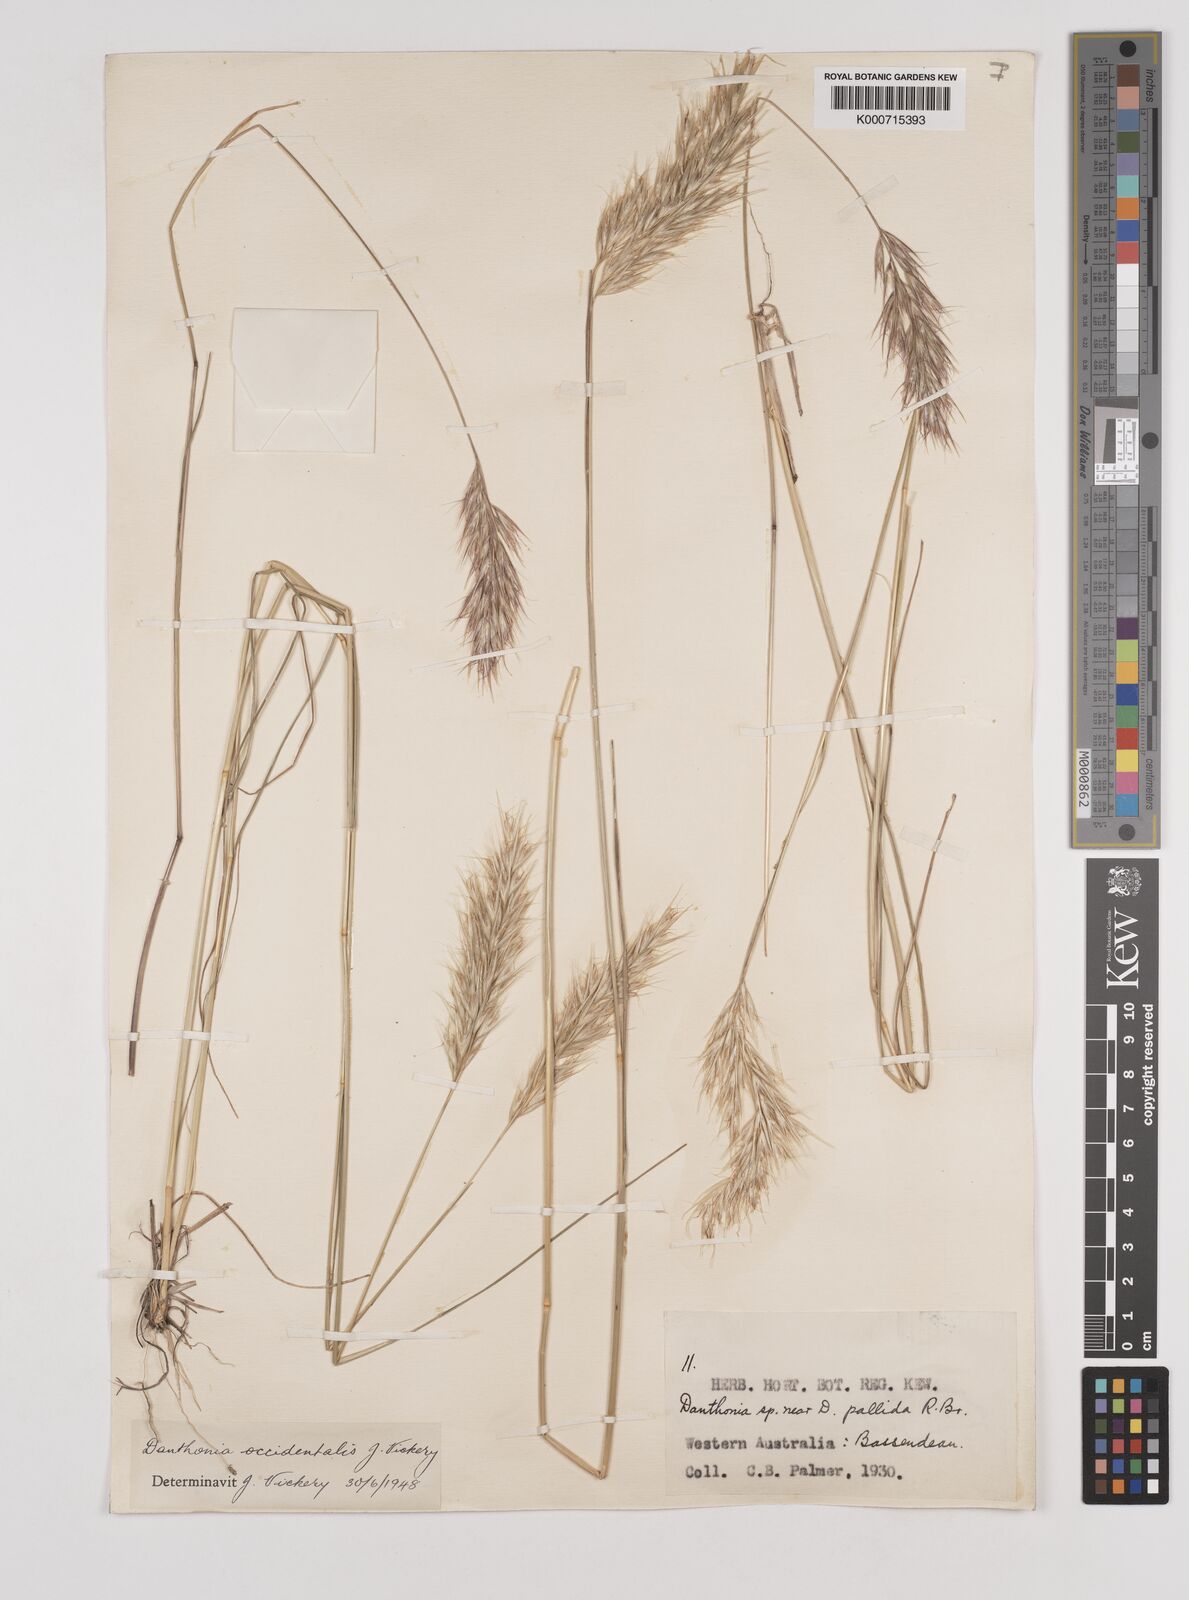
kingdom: Plantae
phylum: Tracheophyta
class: Liliopsida
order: Poales
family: Poaceae
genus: Rytidosperma
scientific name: Rytidosperma occidentale
